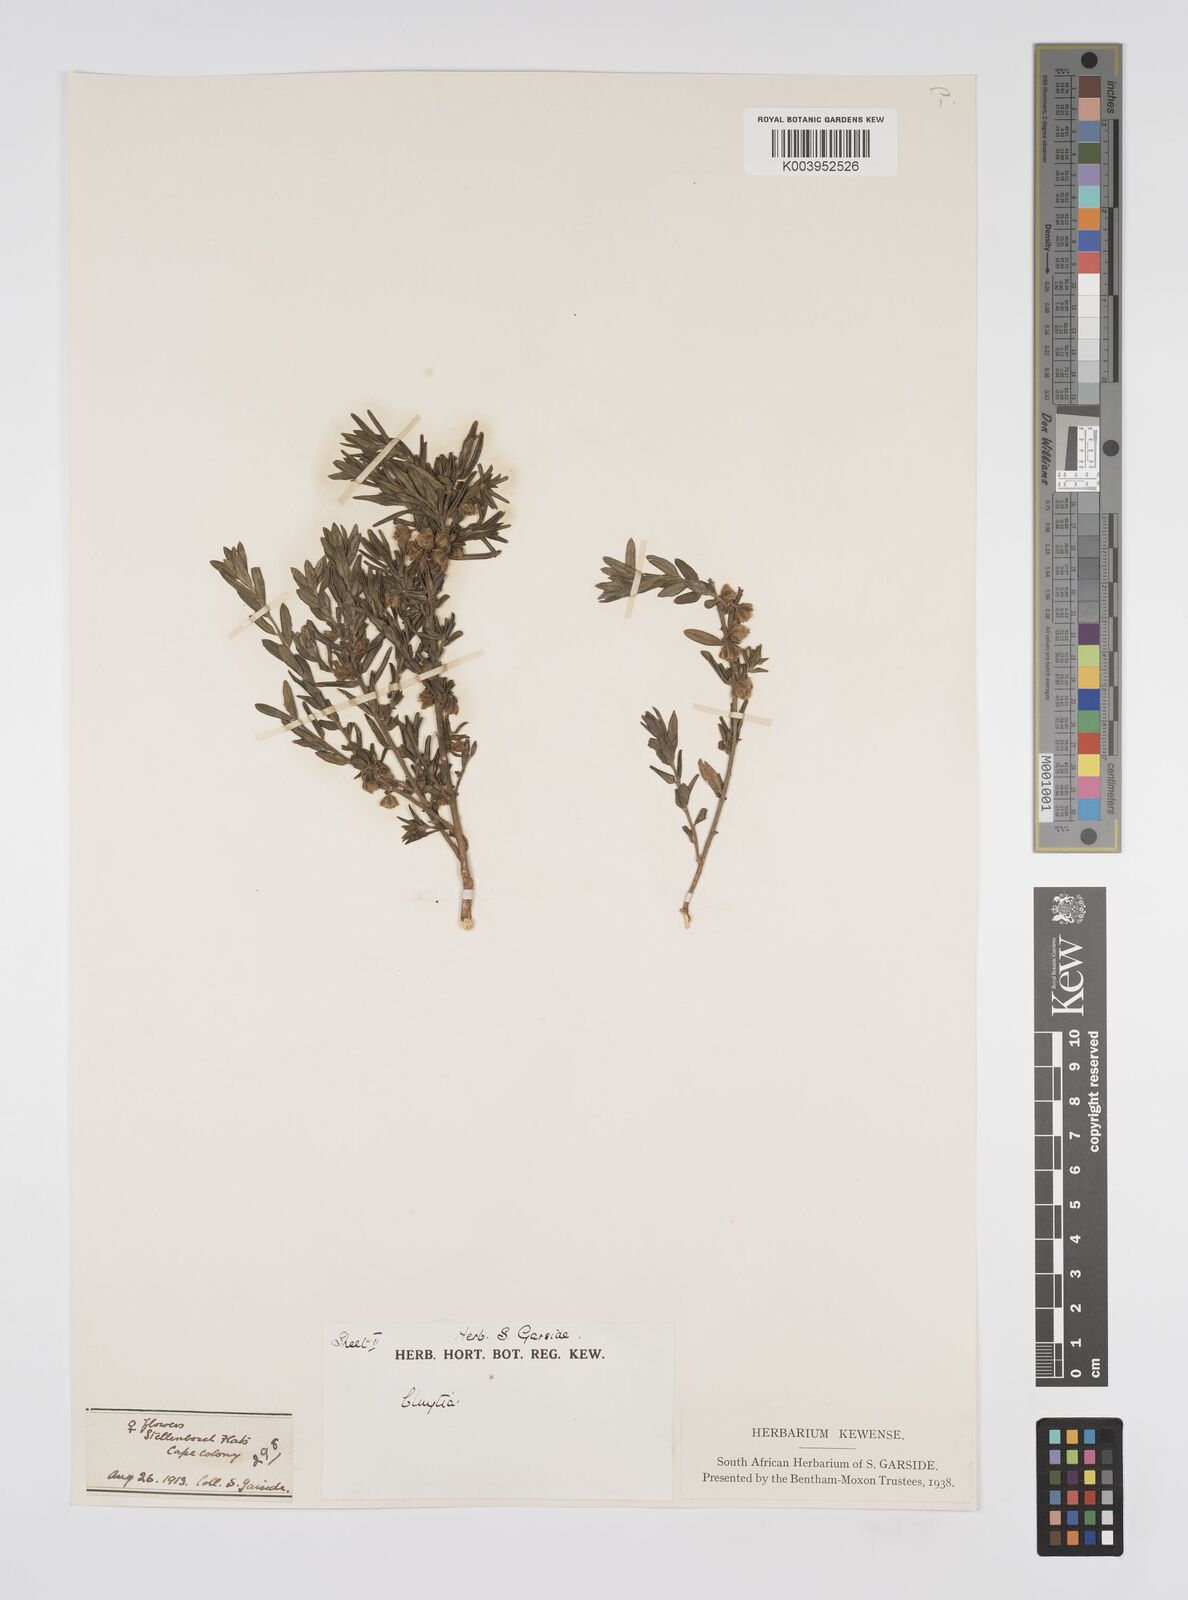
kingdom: Plantae
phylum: Tracheophyta
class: Magnoliopsida
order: Malpighiales
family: Peraceae
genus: Clutia
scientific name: Clutia
